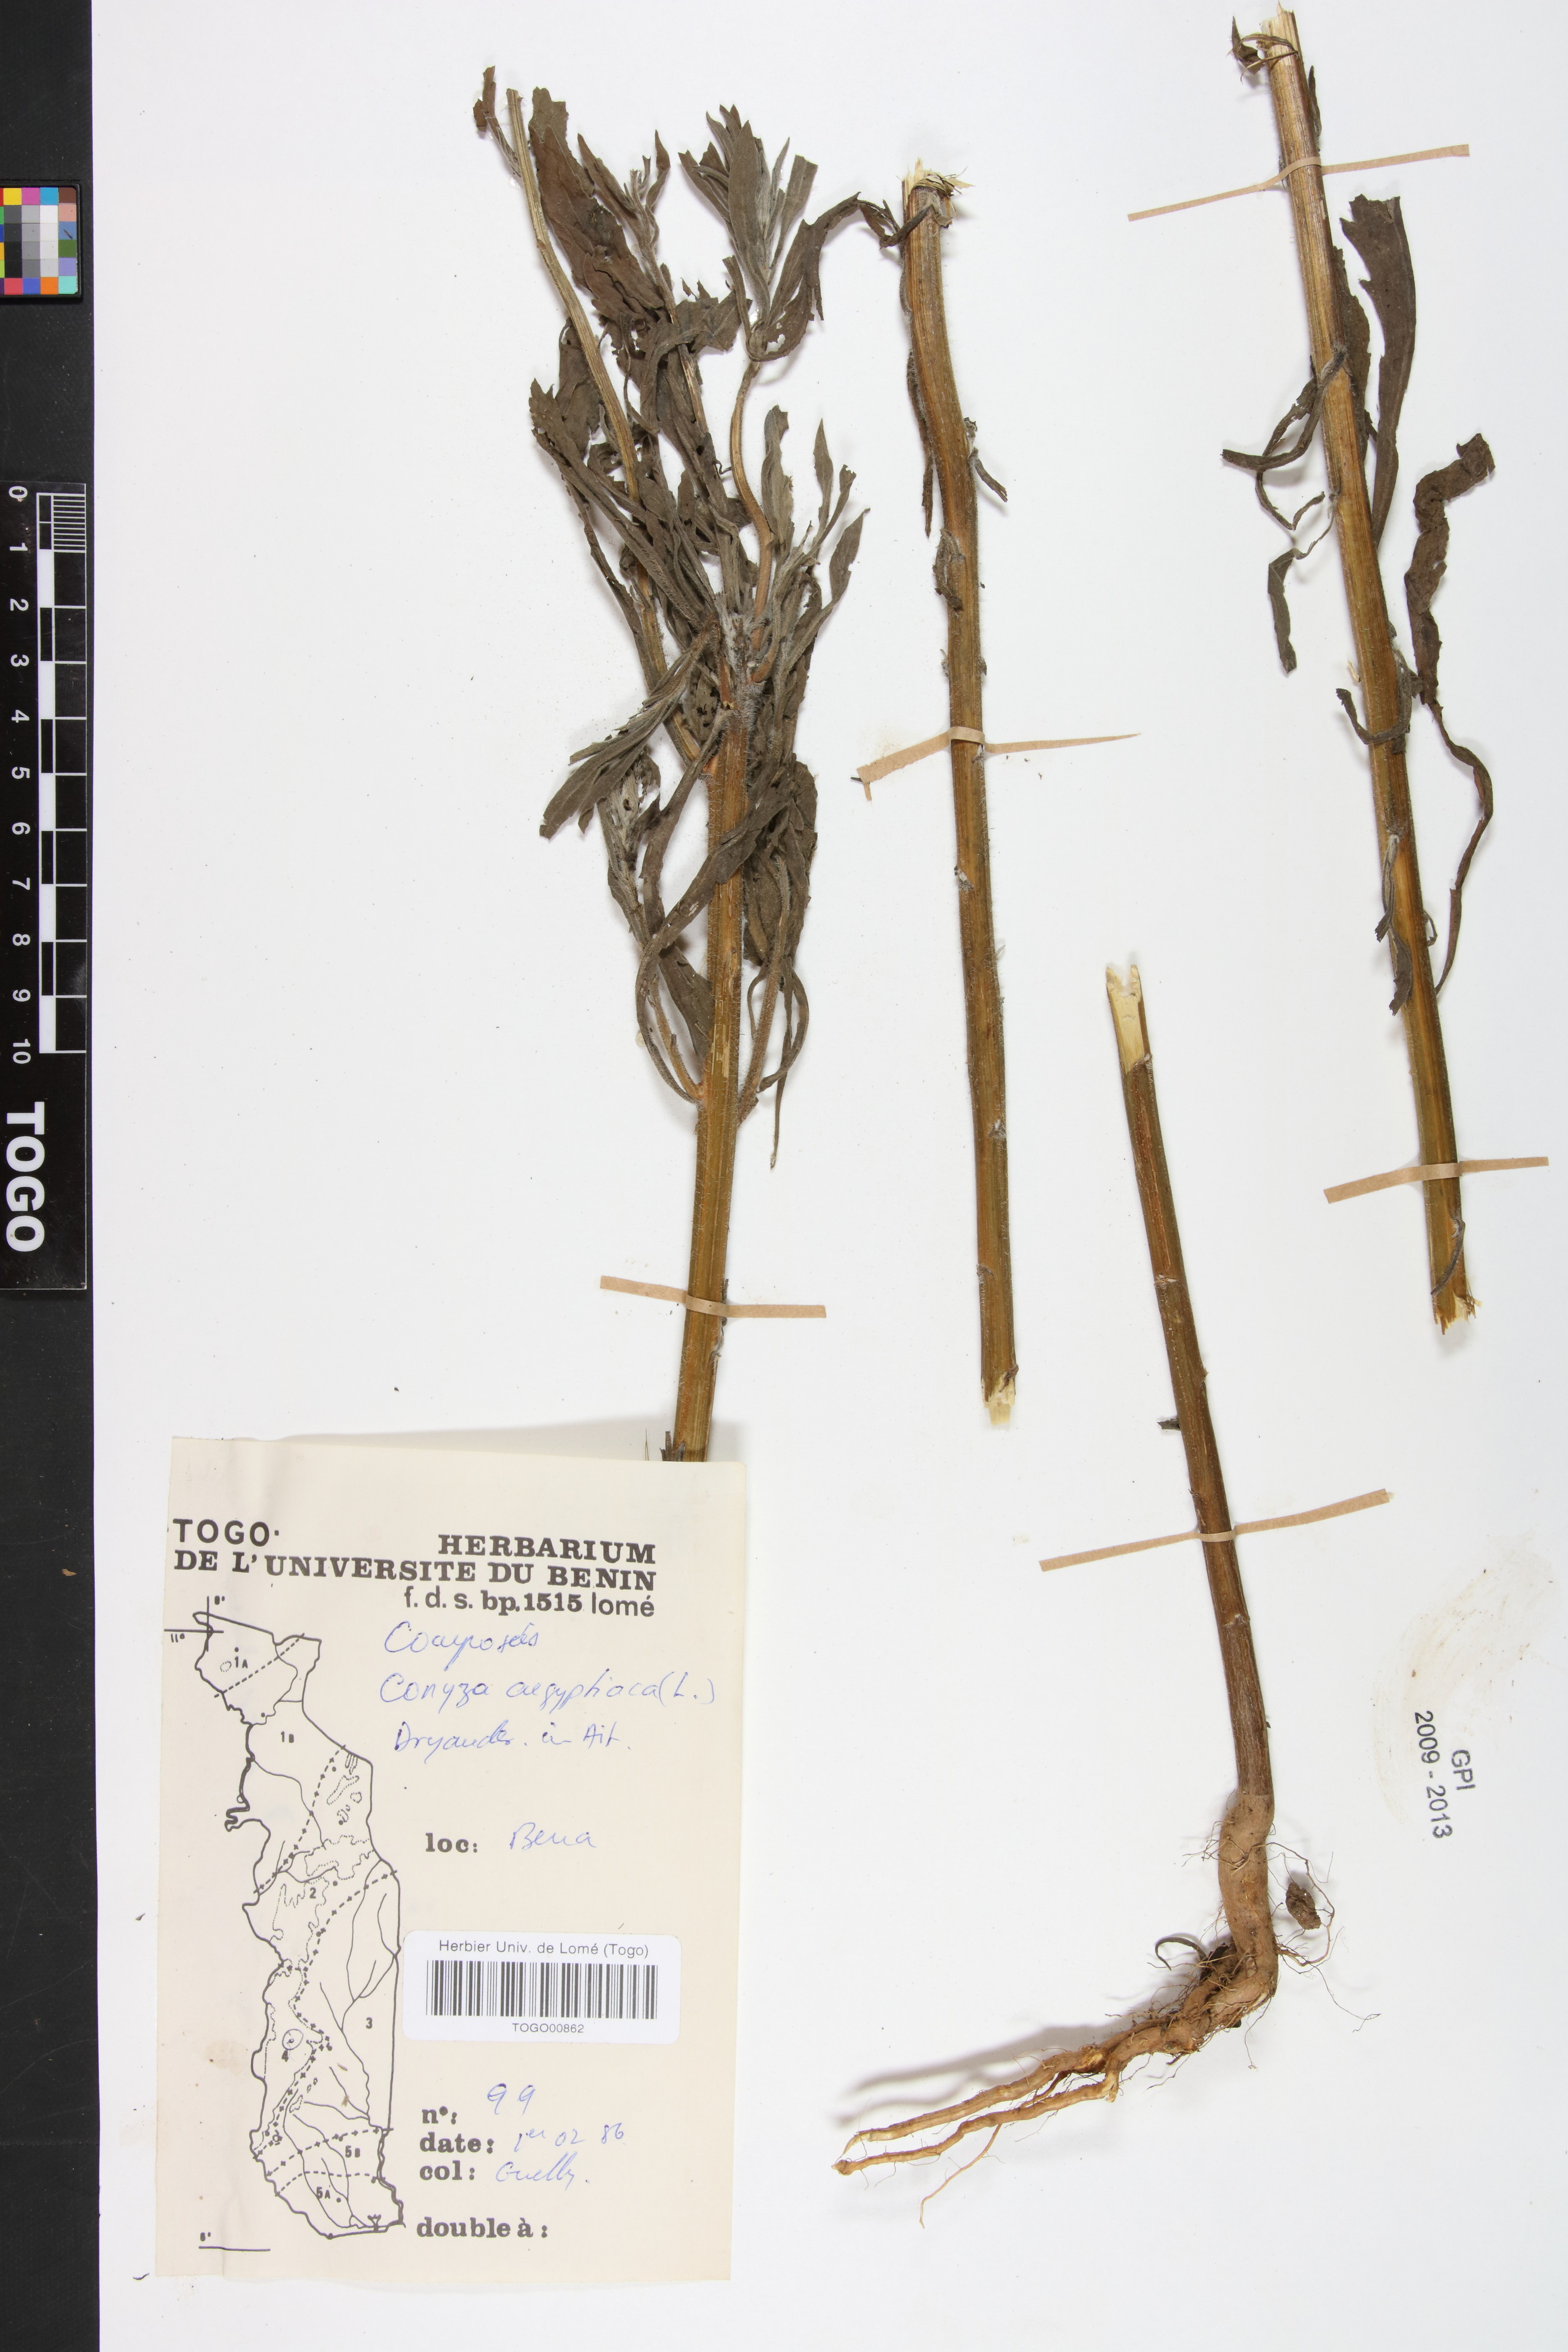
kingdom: Plantae
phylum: Tracheophyta
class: Magnoliopsida
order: Asterales
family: Asteraceae
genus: Nidorella
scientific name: Nidorella aegyptiaca
